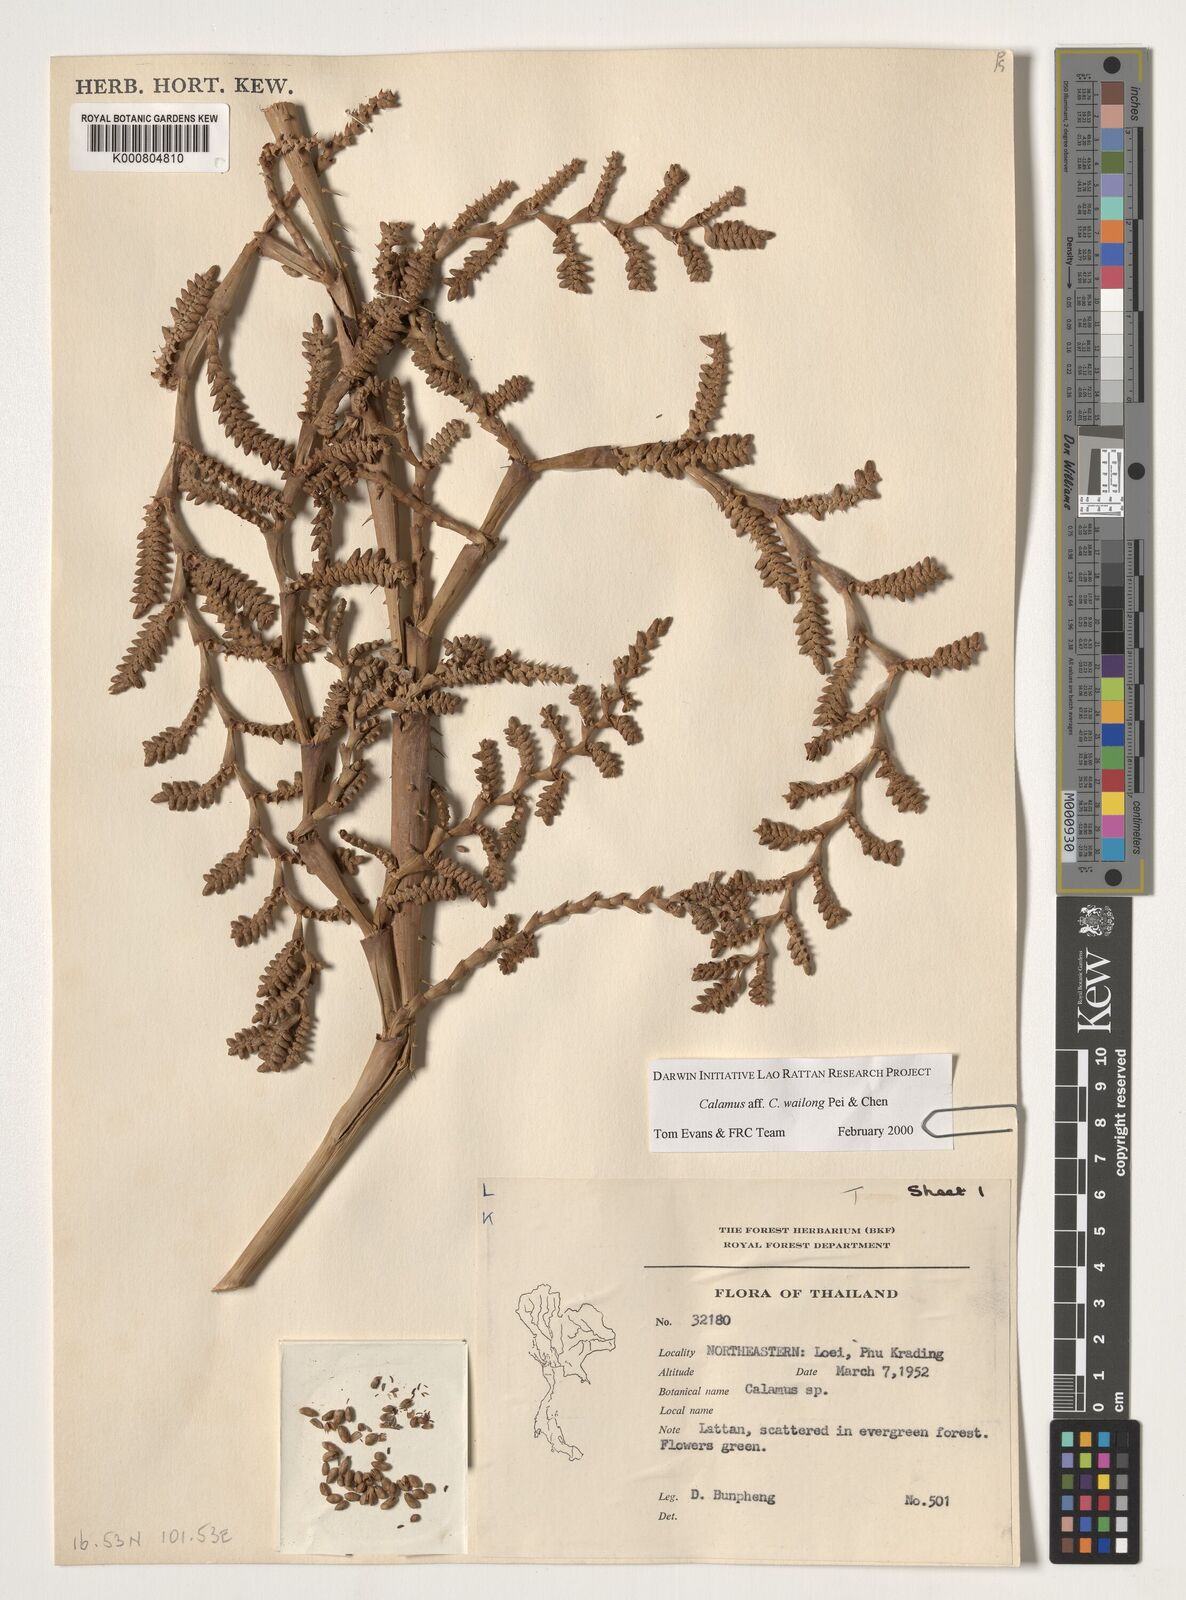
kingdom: Plantae
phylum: Tracheophyta
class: Liliopsida
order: Arecales
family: Arecaceae
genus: Calamus
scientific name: Calamus inermis
